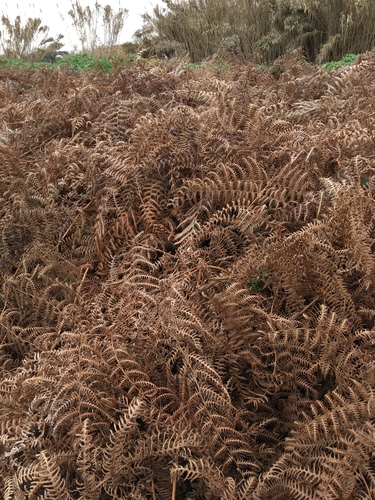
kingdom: Plantae
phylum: Tracheophyta
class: Polypodiopsida
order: Polypodiales
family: Dennstaedtiaceae
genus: Pteridium
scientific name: Pteridium aquilinum
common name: Bracken
